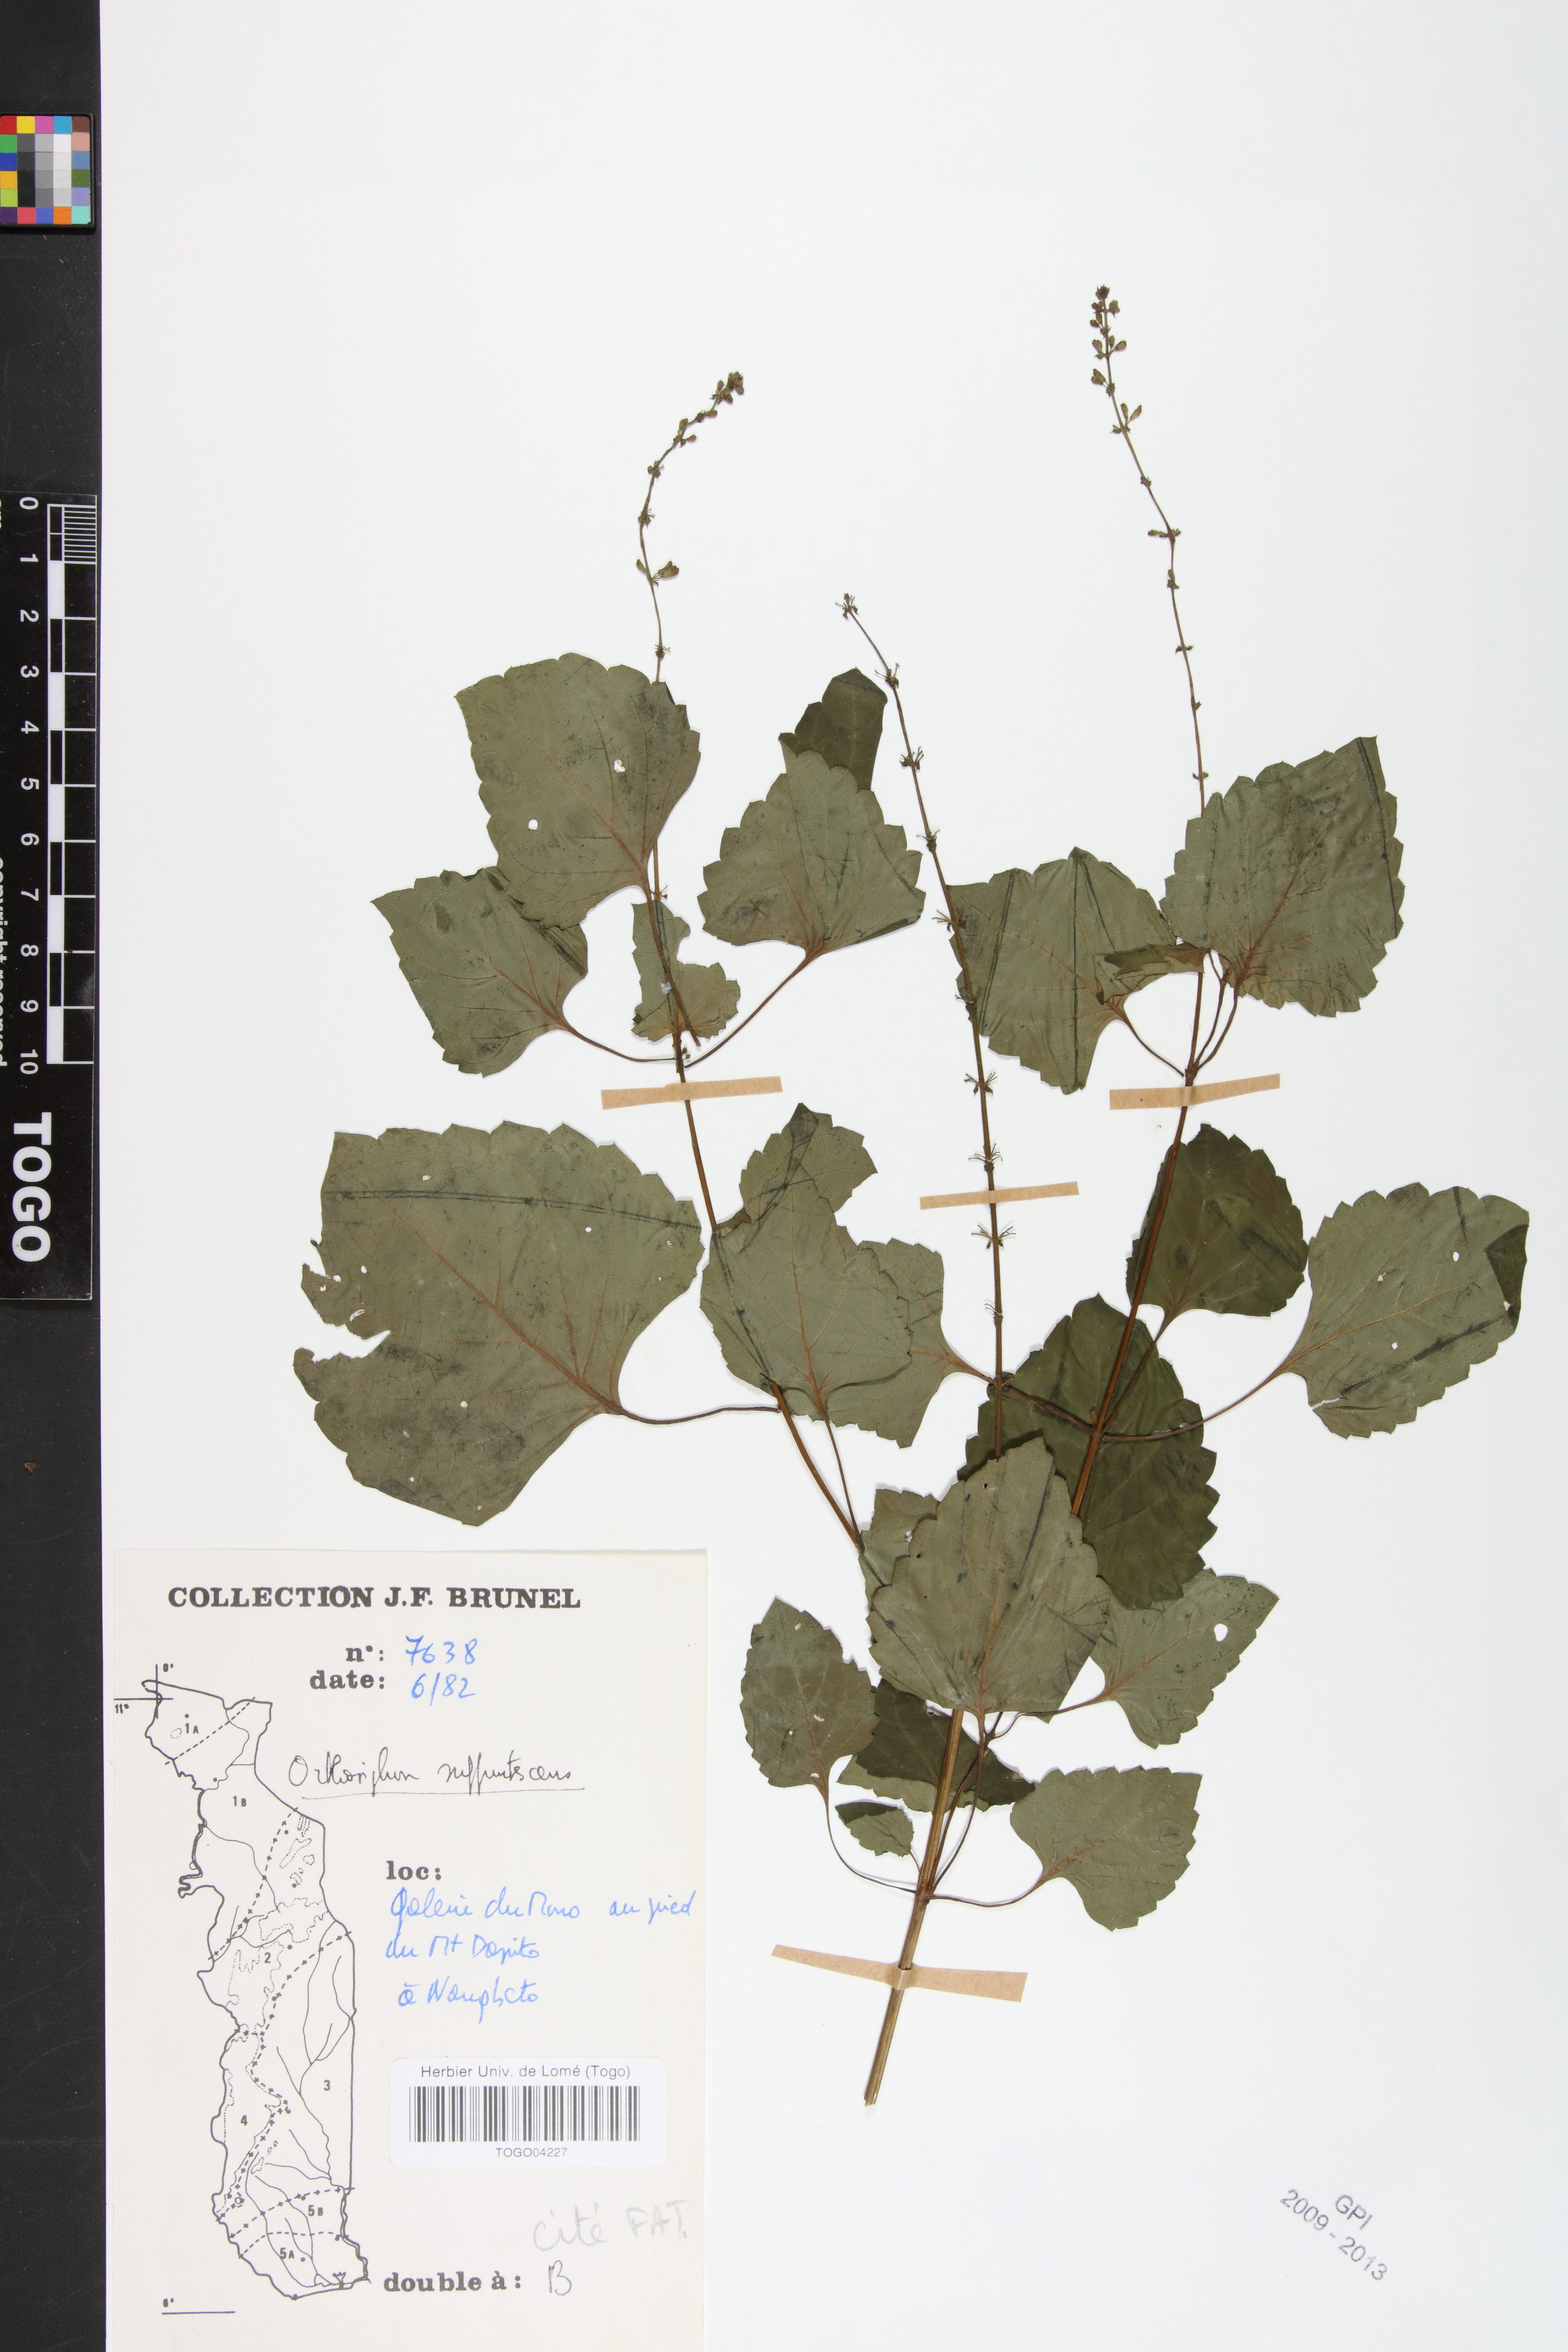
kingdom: Plantae
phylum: Tracheophyta
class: Magnoliopsida
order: Lamiales
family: Lamiaceae
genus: Orthosiphon
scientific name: Orthosiphon thymiflorus
